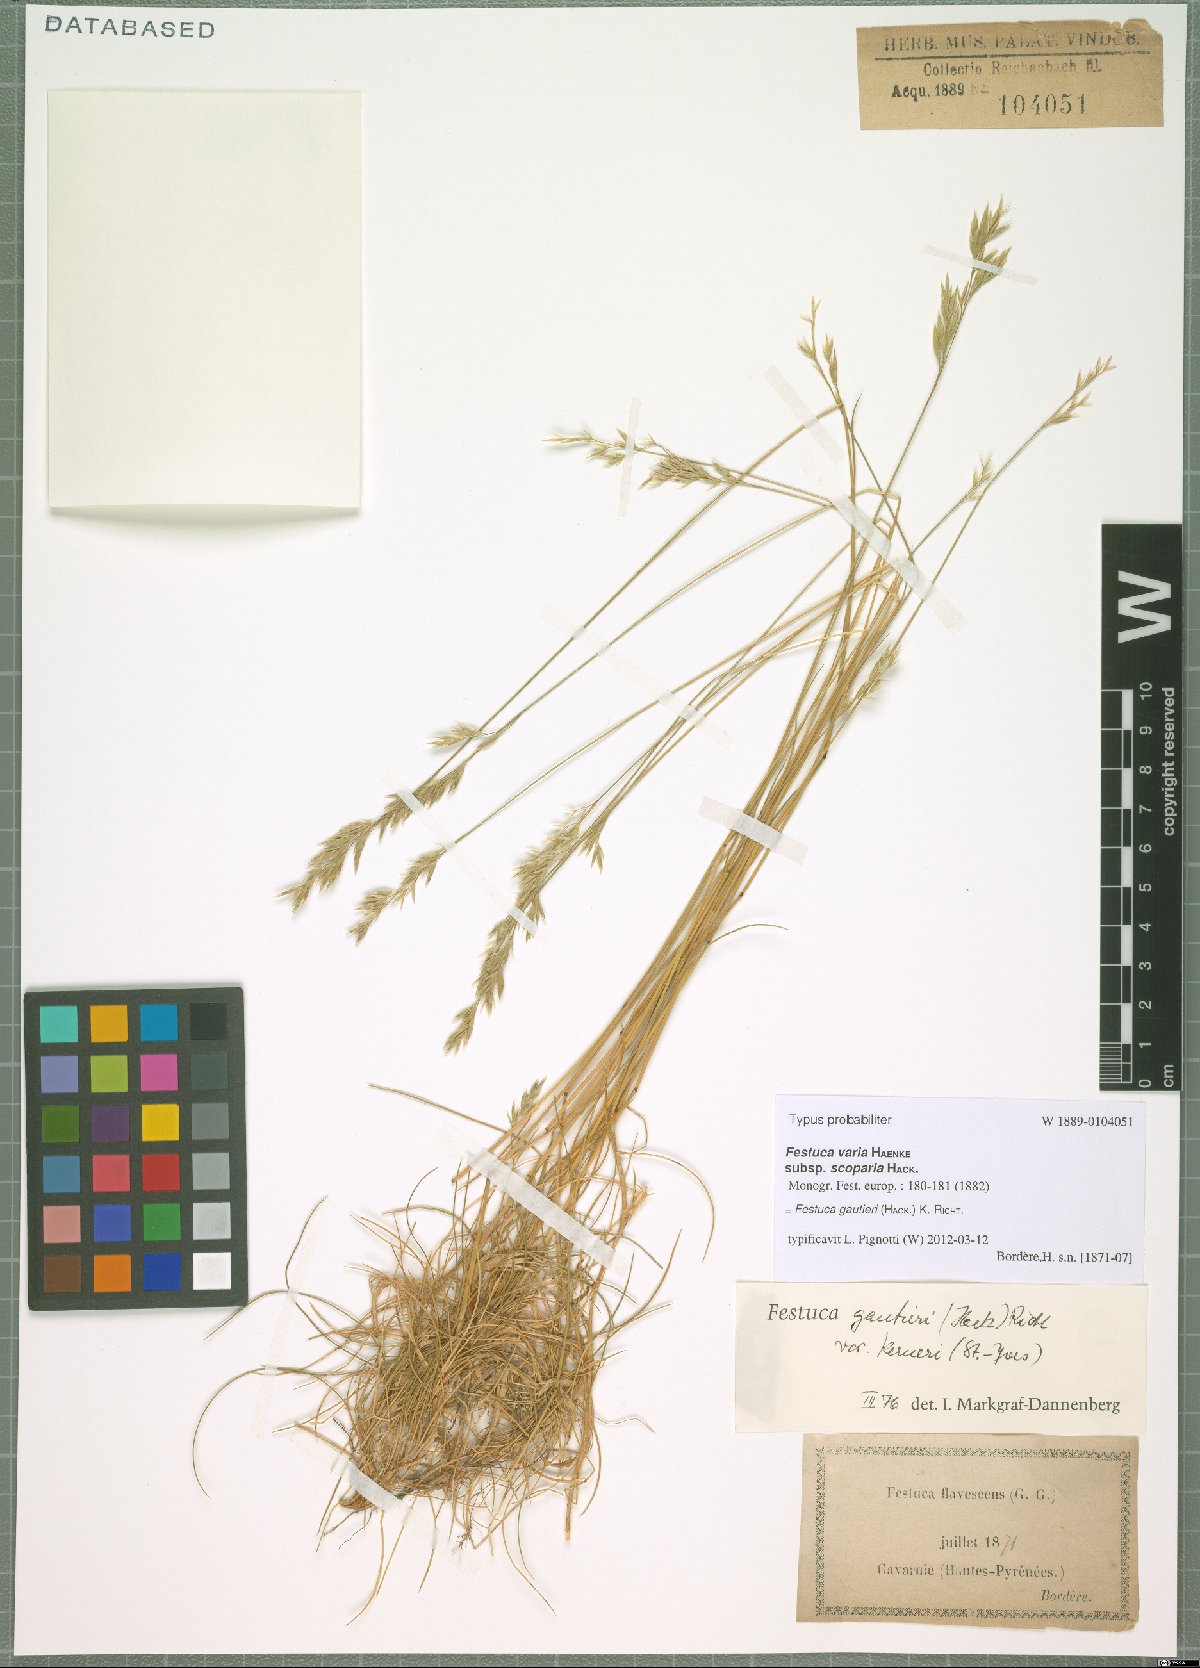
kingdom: Plantae
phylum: Tracheophyta
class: Liliopsida
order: Poales
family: Poaceae
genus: Festuca
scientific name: Festuca gautieri
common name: Spiky fescue
